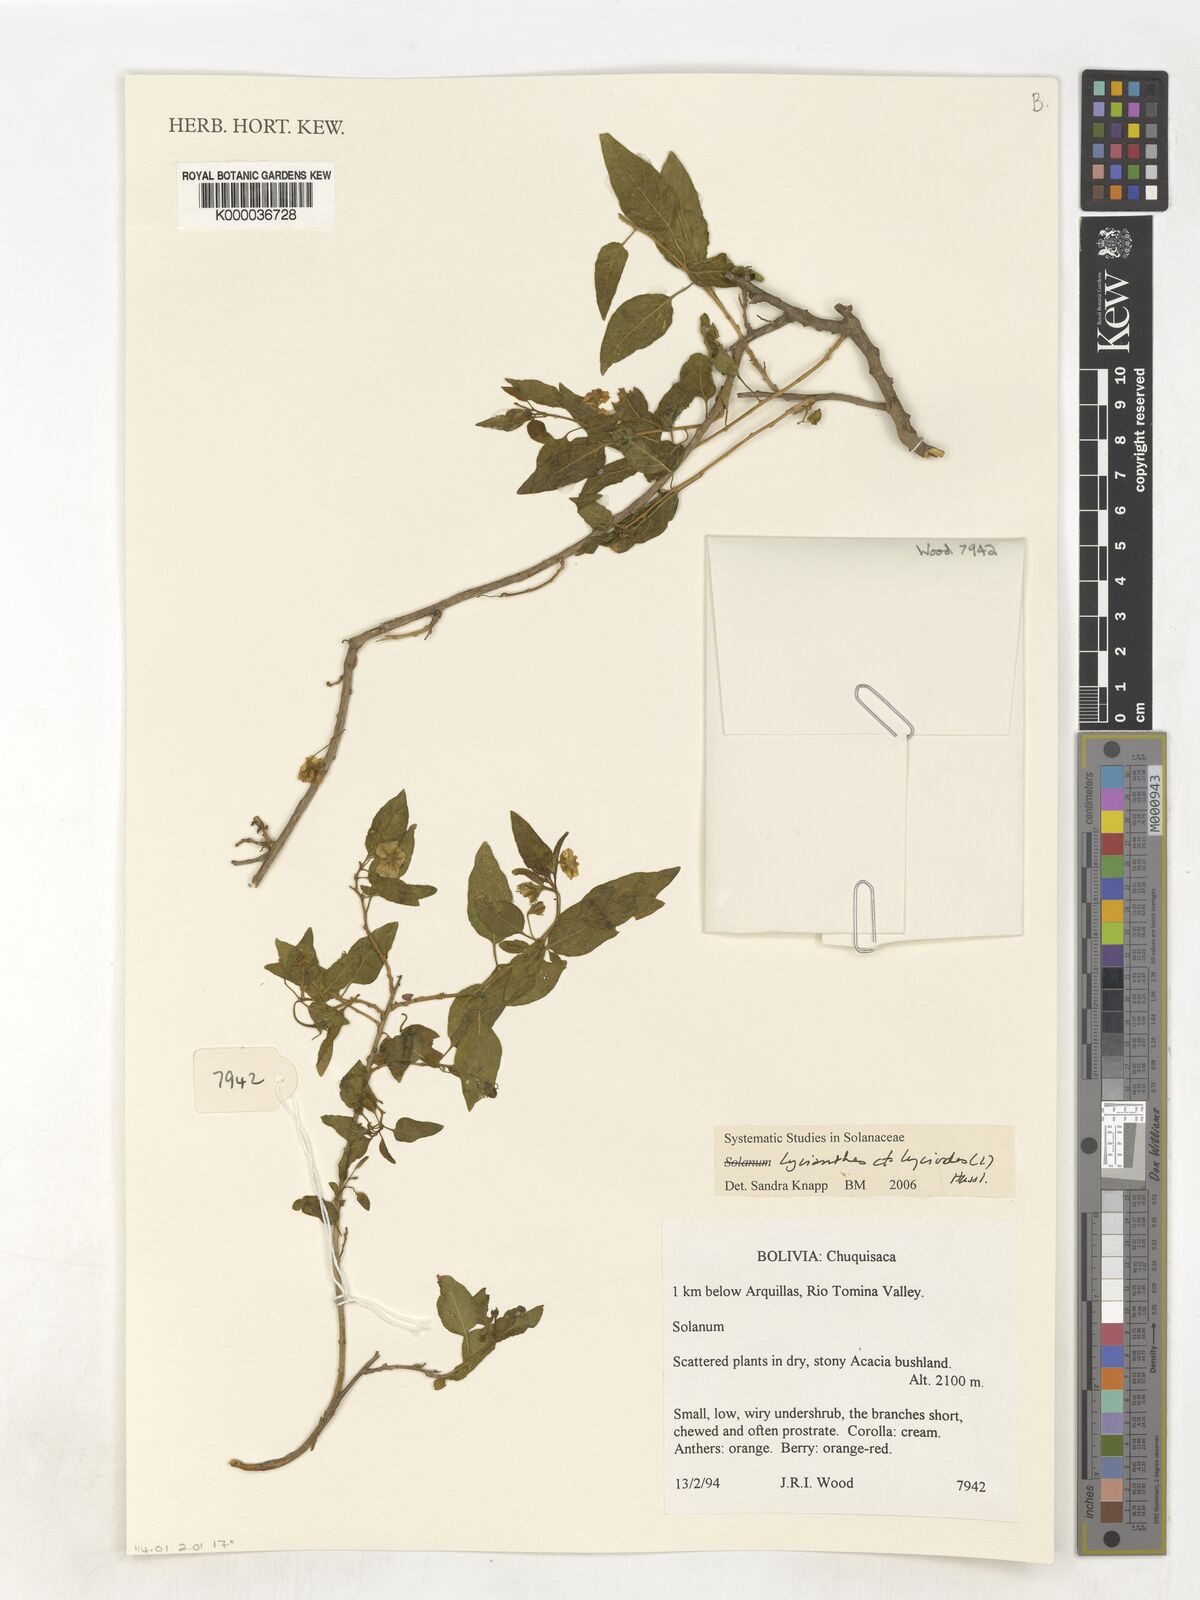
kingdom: Plantae
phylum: Tracheophyta
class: Magnoliopsida
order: Solanales
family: Solanaceae
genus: Lycianthes
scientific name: Lycianthes lycioides
